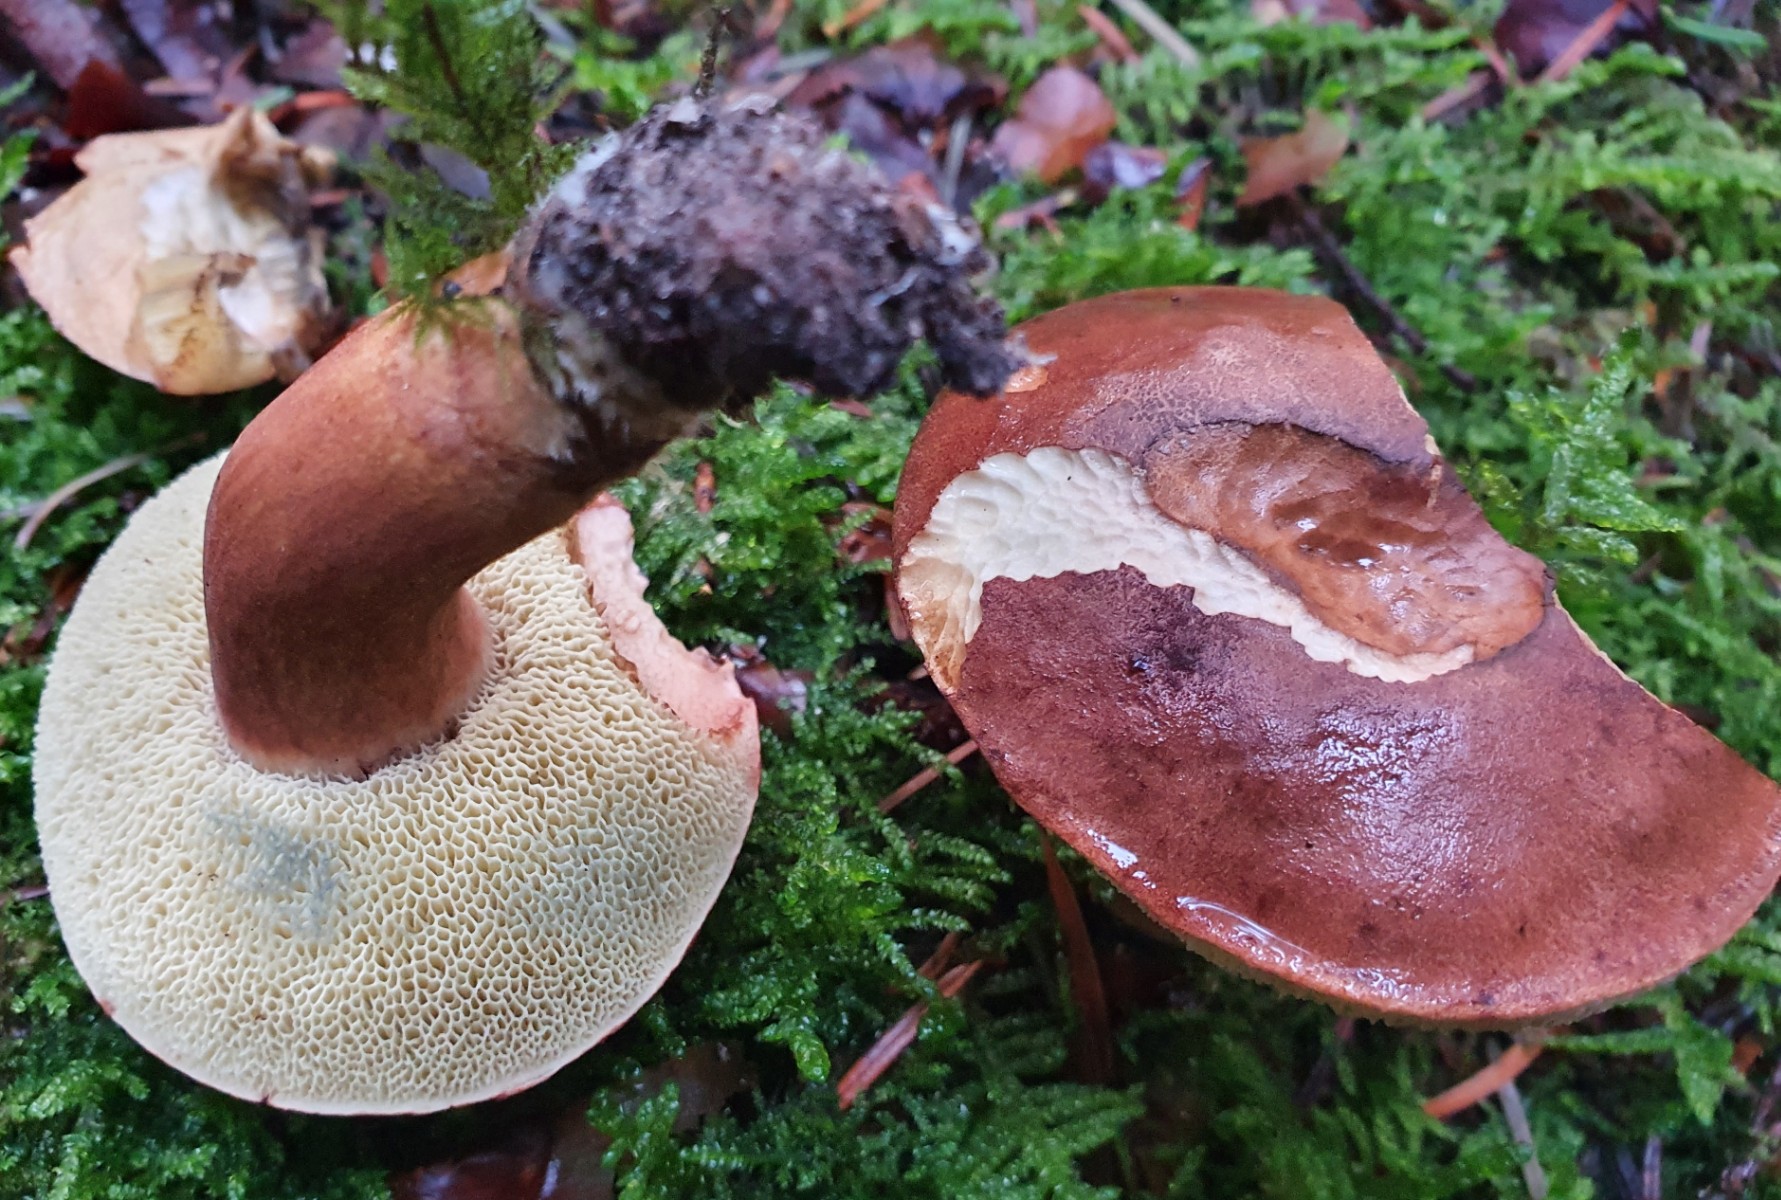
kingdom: Fungi
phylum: Basidiomycota
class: Agaricomycetes
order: Boletales
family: Boletaceae
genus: Imleria
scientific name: Imleria badia
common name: brunstokket rørhat
